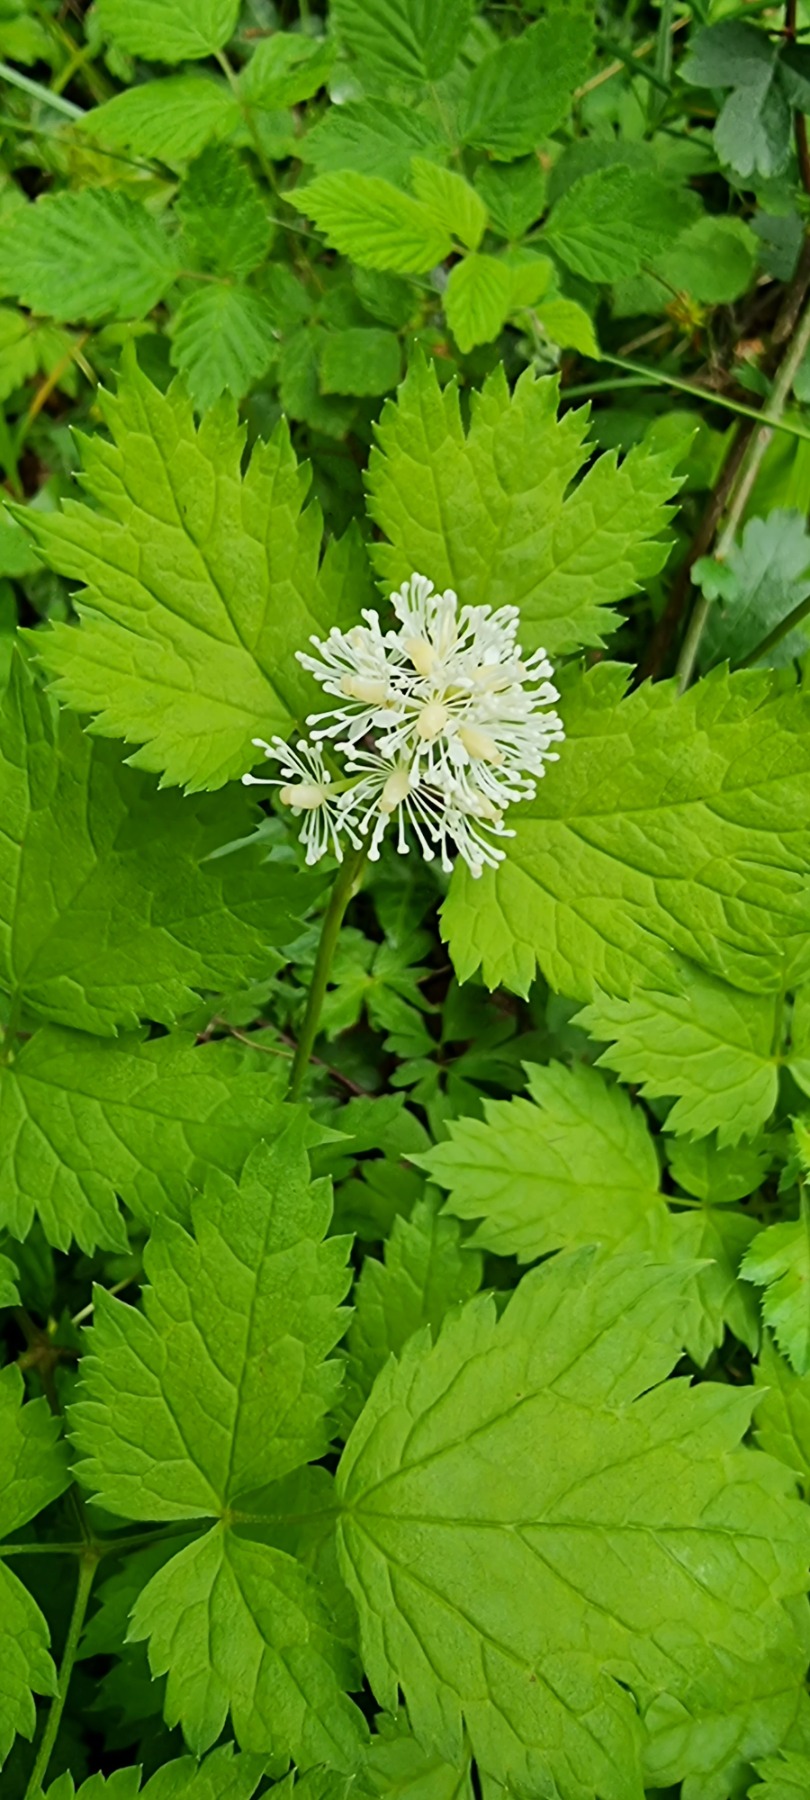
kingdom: Plantae
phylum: Tracheophyta
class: Magnoliopsida
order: Ranunculales
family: Ranunculaceae
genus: Actaea
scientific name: Actaea spicata
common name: Druemunke
